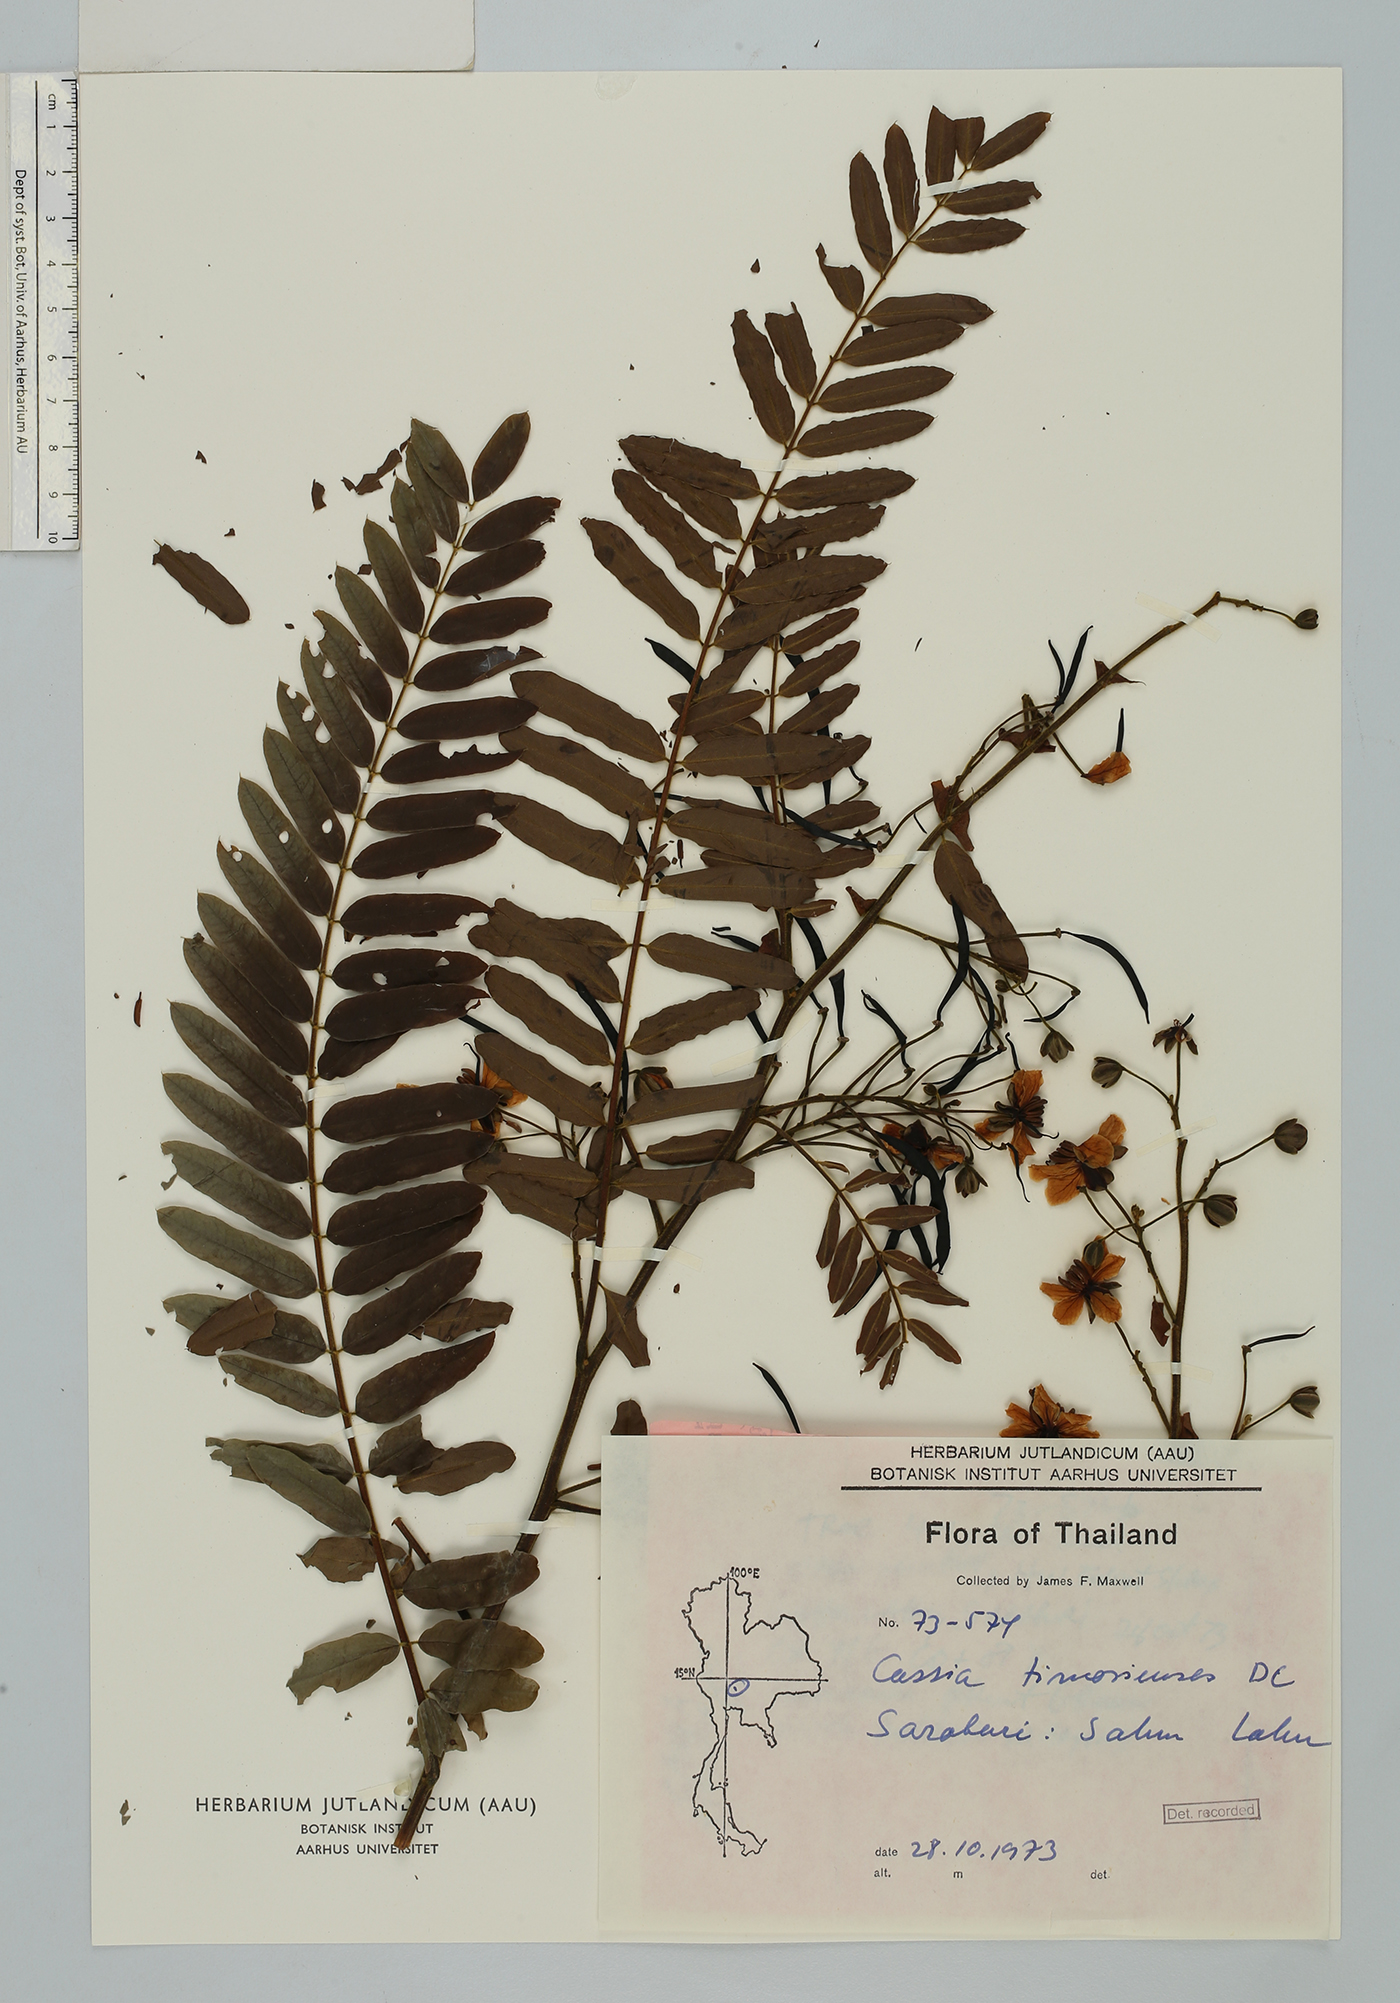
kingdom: Plantae
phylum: Tracheophyta
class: Magnoliopsida
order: Fabales
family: Fabaceae
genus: Senna
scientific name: Senna timoriensis
